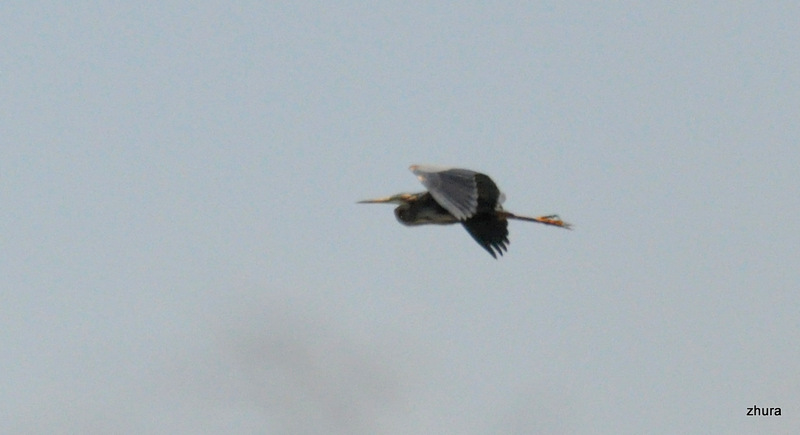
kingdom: Animalia
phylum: Chordata
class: Aves
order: Pelecaniformes
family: Ardeidae
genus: Ardea
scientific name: Ardea purpurea
